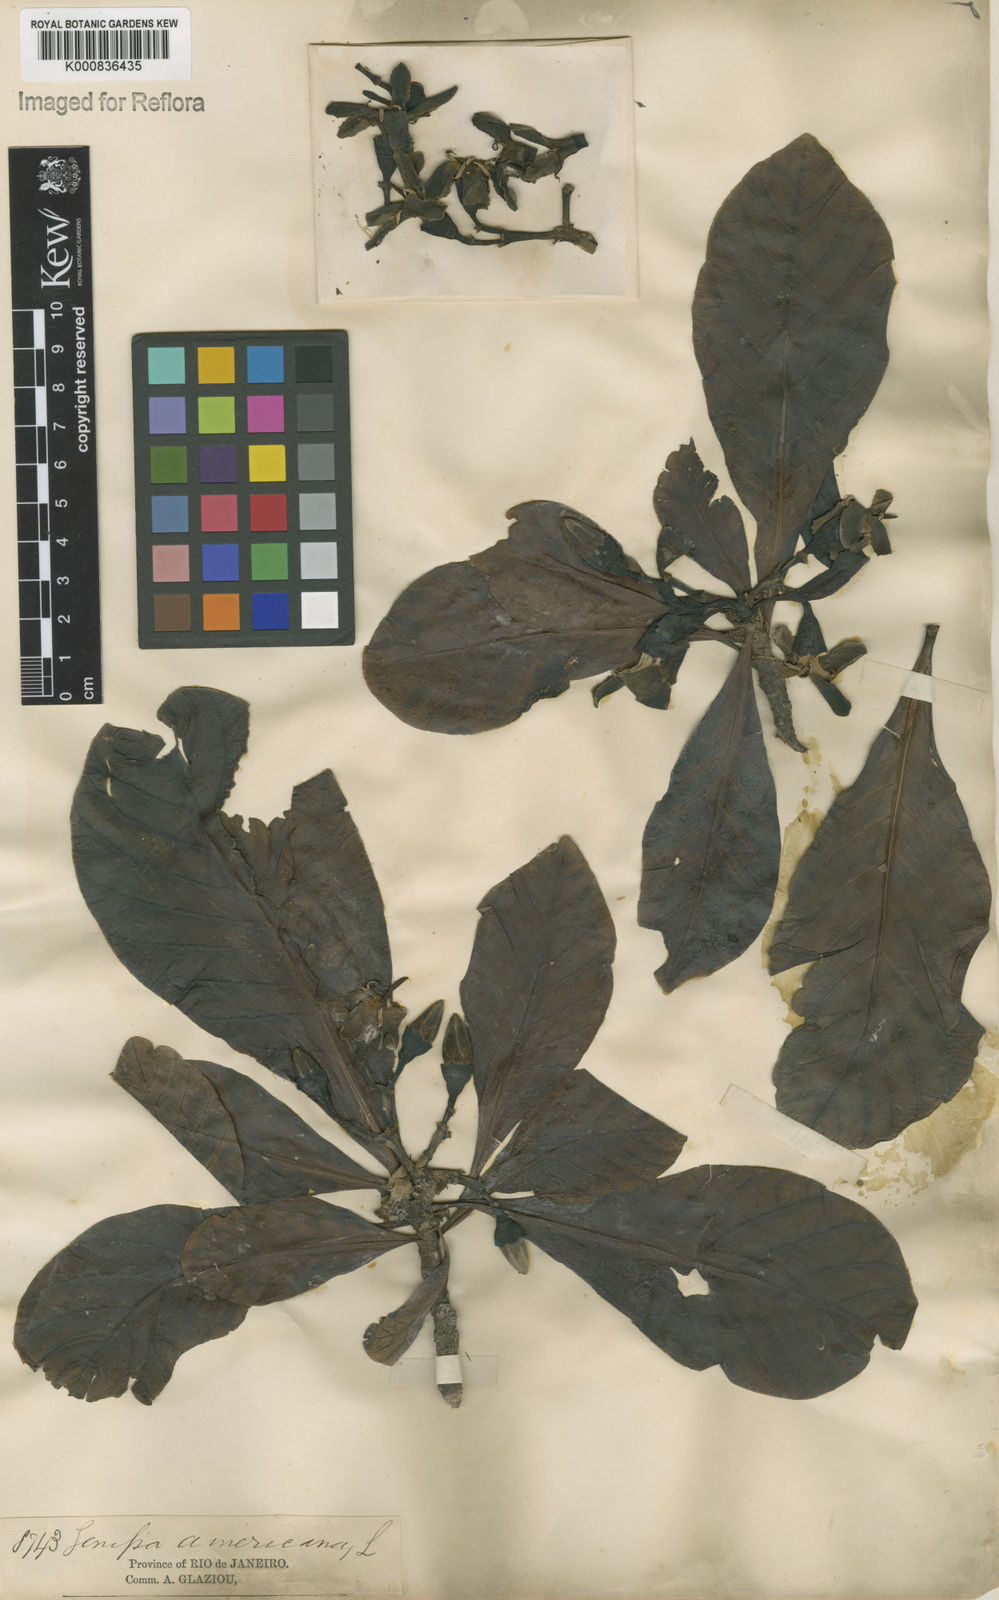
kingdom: Plantae
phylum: Tracheophyta
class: Magnoliopsida
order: Gentianales
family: Rubiaceae
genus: Genipa
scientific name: Genipa americana
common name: Genipap
